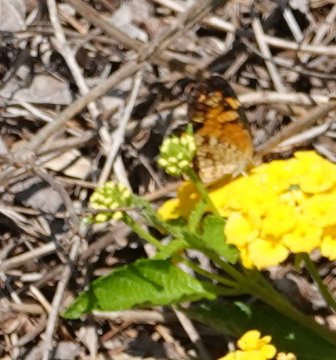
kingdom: Animalia
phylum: Arthropoda
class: Insecta
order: Lepidoptera
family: Nymphalidae
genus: Phyciodes
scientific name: Phyciodes tharos
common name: Pearl Crescent
